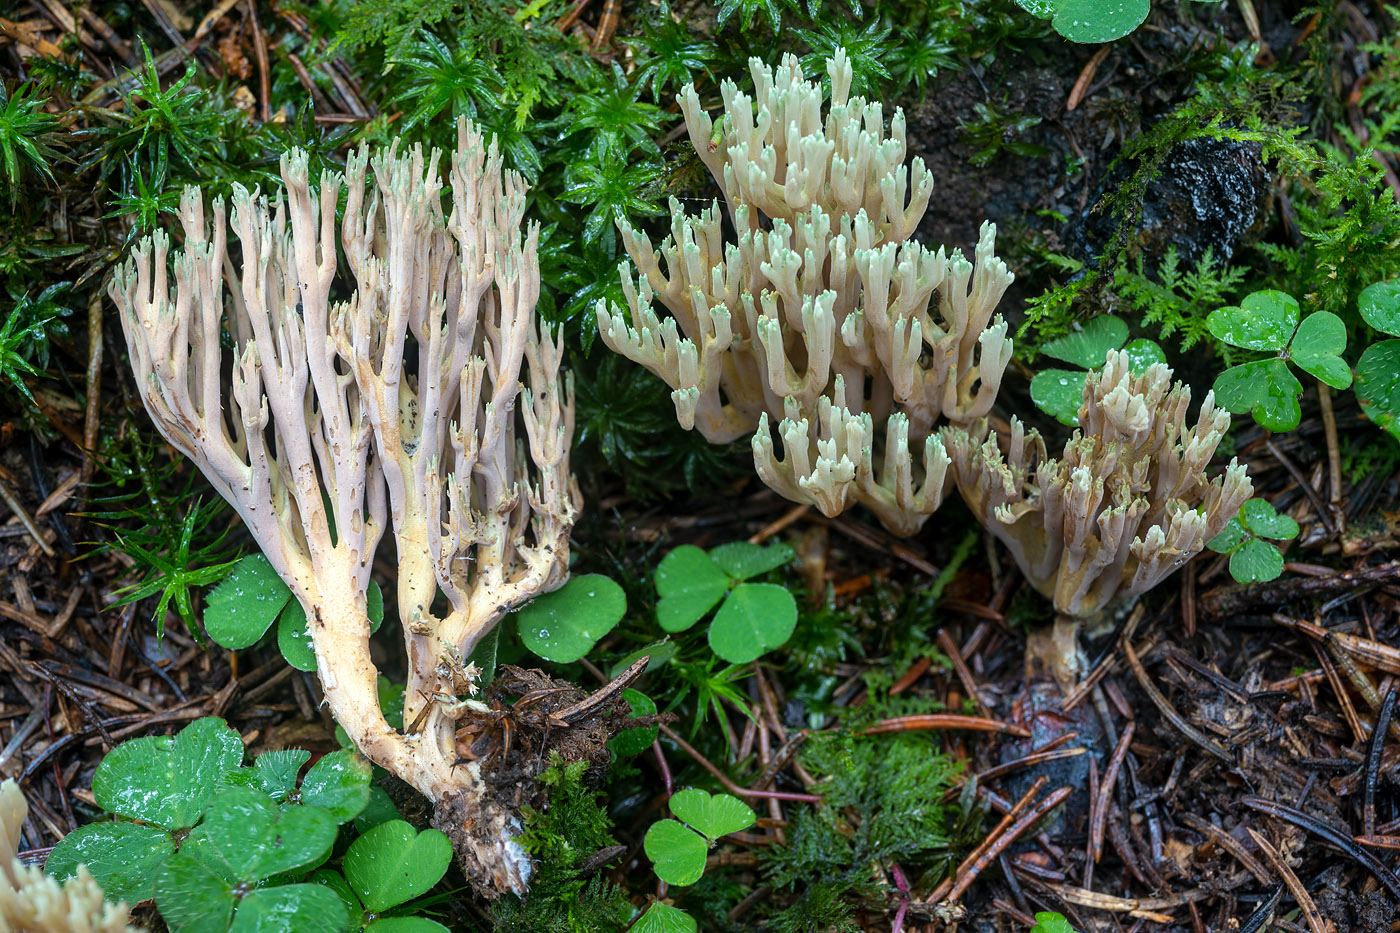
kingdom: Fungi
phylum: Basidiomycota
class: Agaricomycetes
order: Gomphales
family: Gomphaceae
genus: Ramaria
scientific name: Ramaria apiculata
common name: grøntoppet koralsvamp
